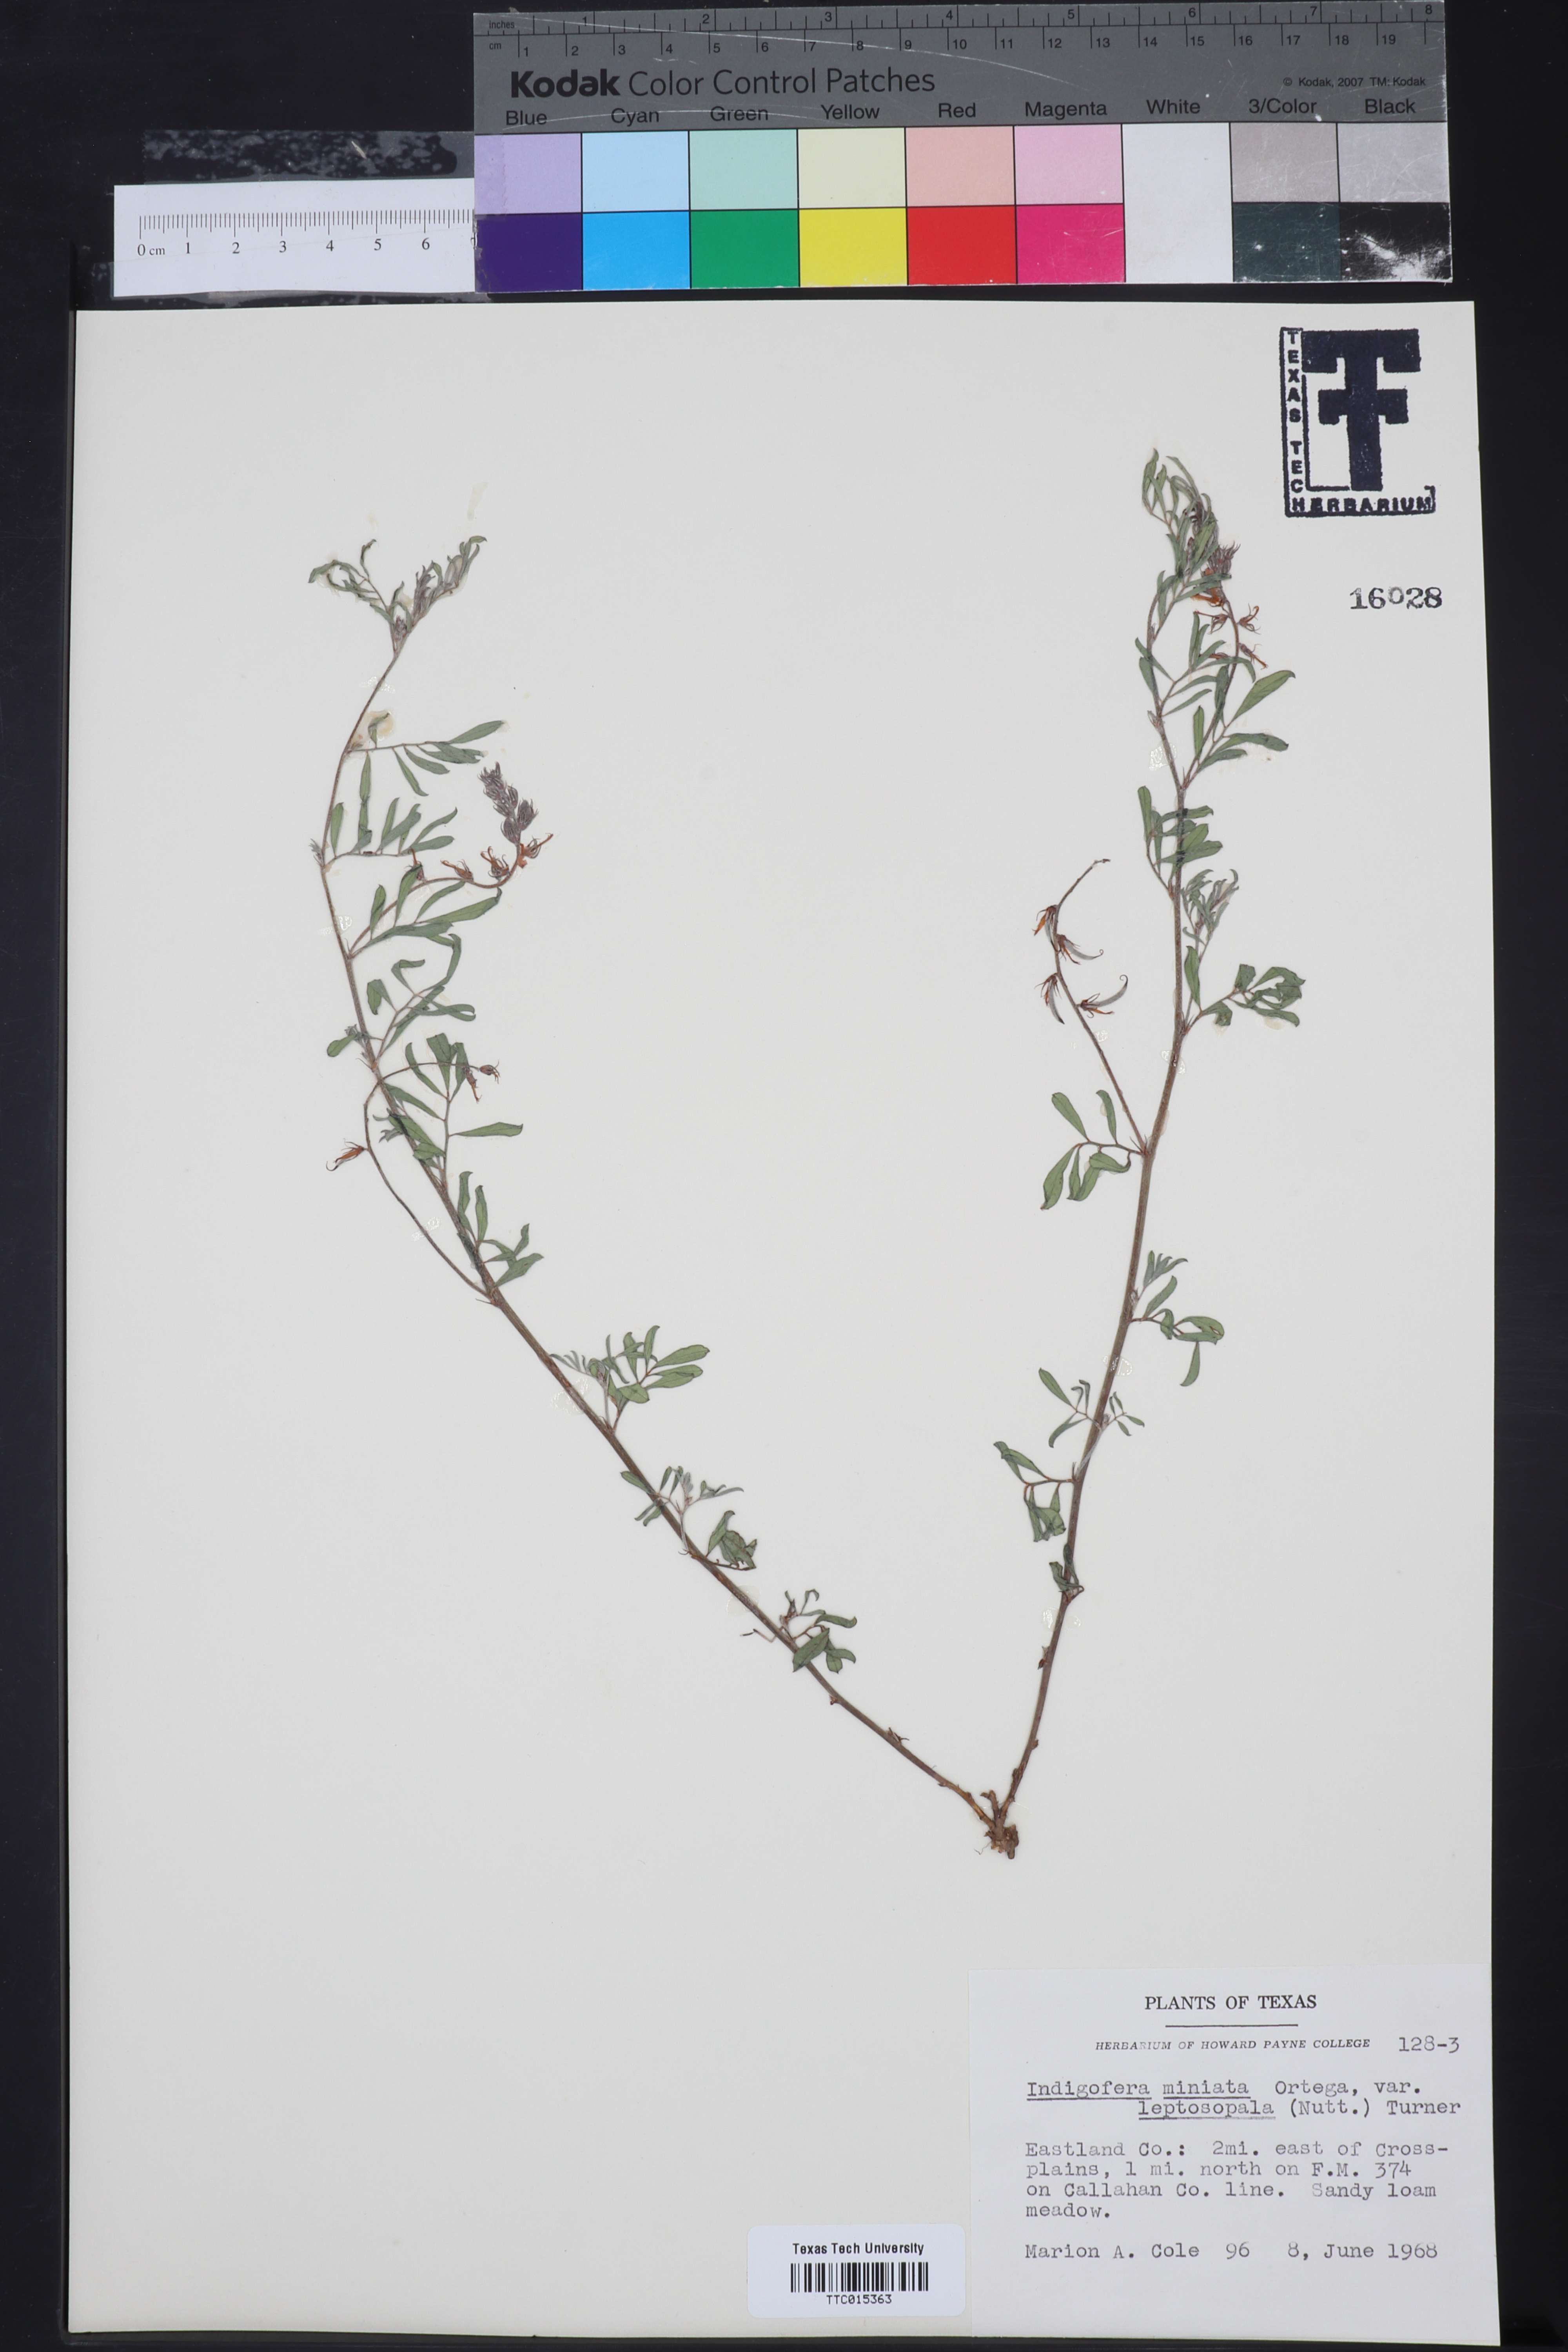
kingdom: Plantae
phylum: Tracheophyta
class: Magnoliopsida
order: Fabales
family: Fabaceae
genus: Indigofera
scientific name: Indigofera miniata
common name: Coast indigo
